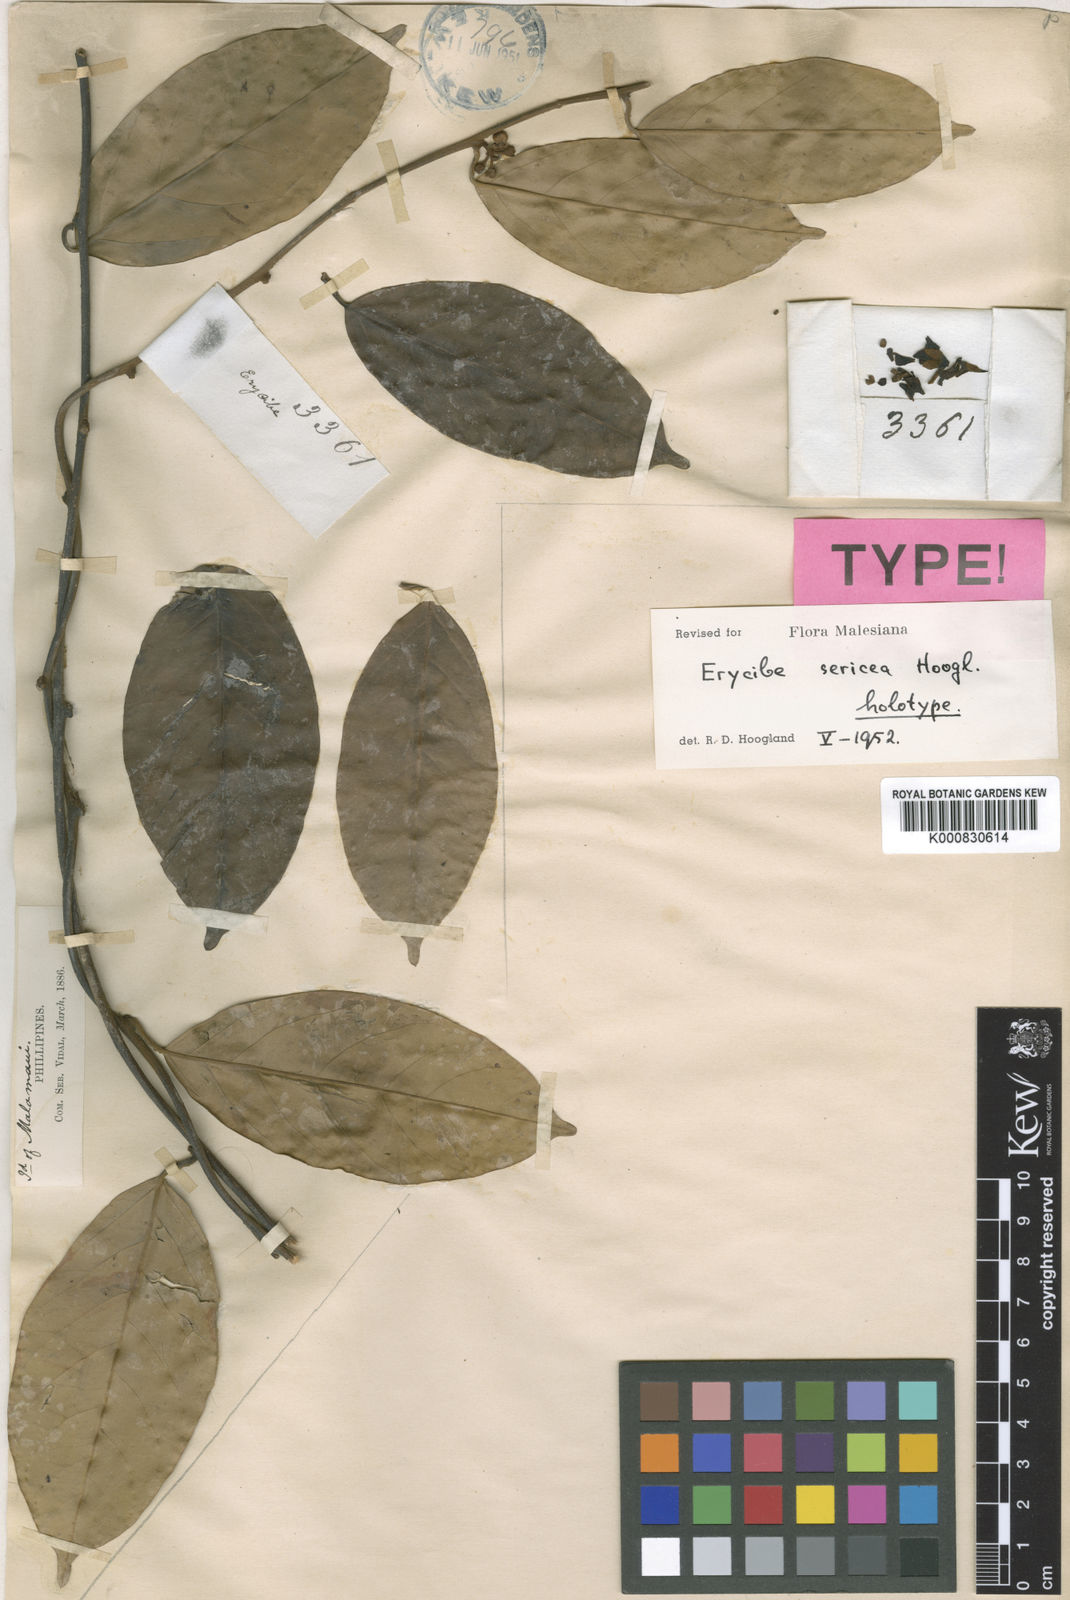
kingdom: Plantae
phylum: Tracheophyta
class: Magnoliopsida
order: Solanales
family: Convolvulaceae
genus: Erycibe
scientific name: Erycibe sericea
